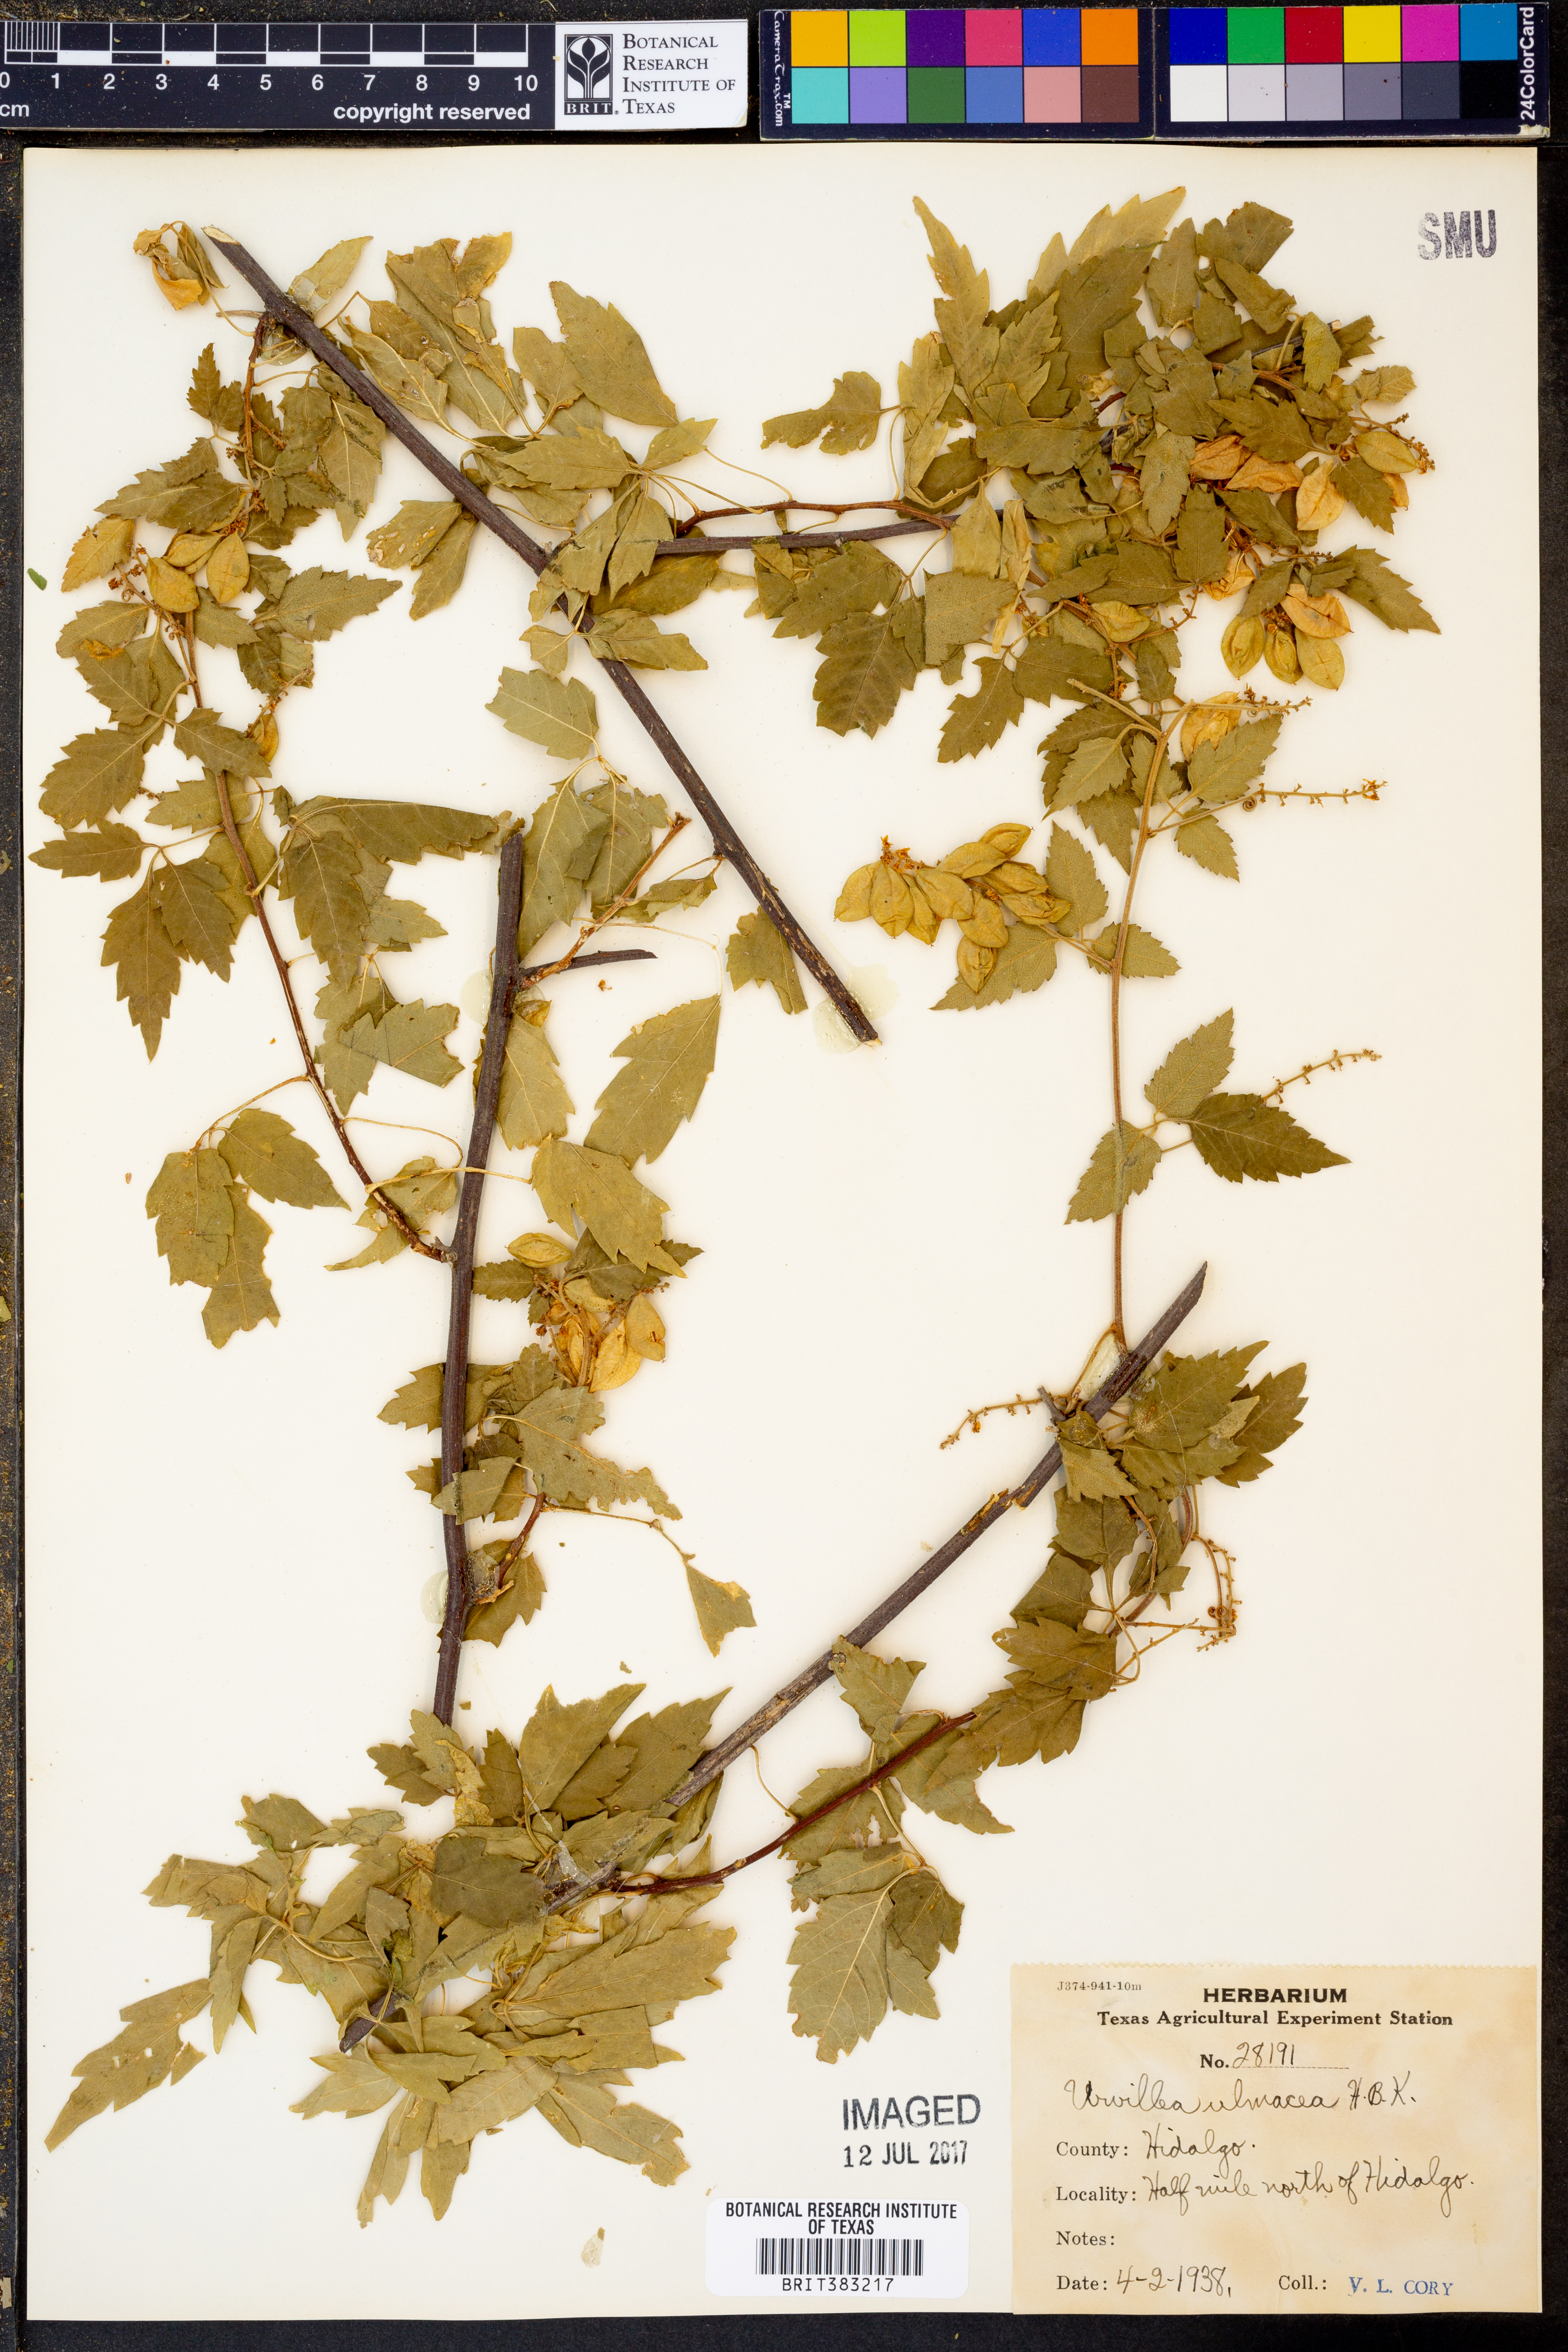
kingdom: Plantae
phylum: Tracheophyta
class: Magnoliopsida
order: Sapindales
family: Sapindaceae
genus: Urvillea
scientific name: Urvillea ulmacea
